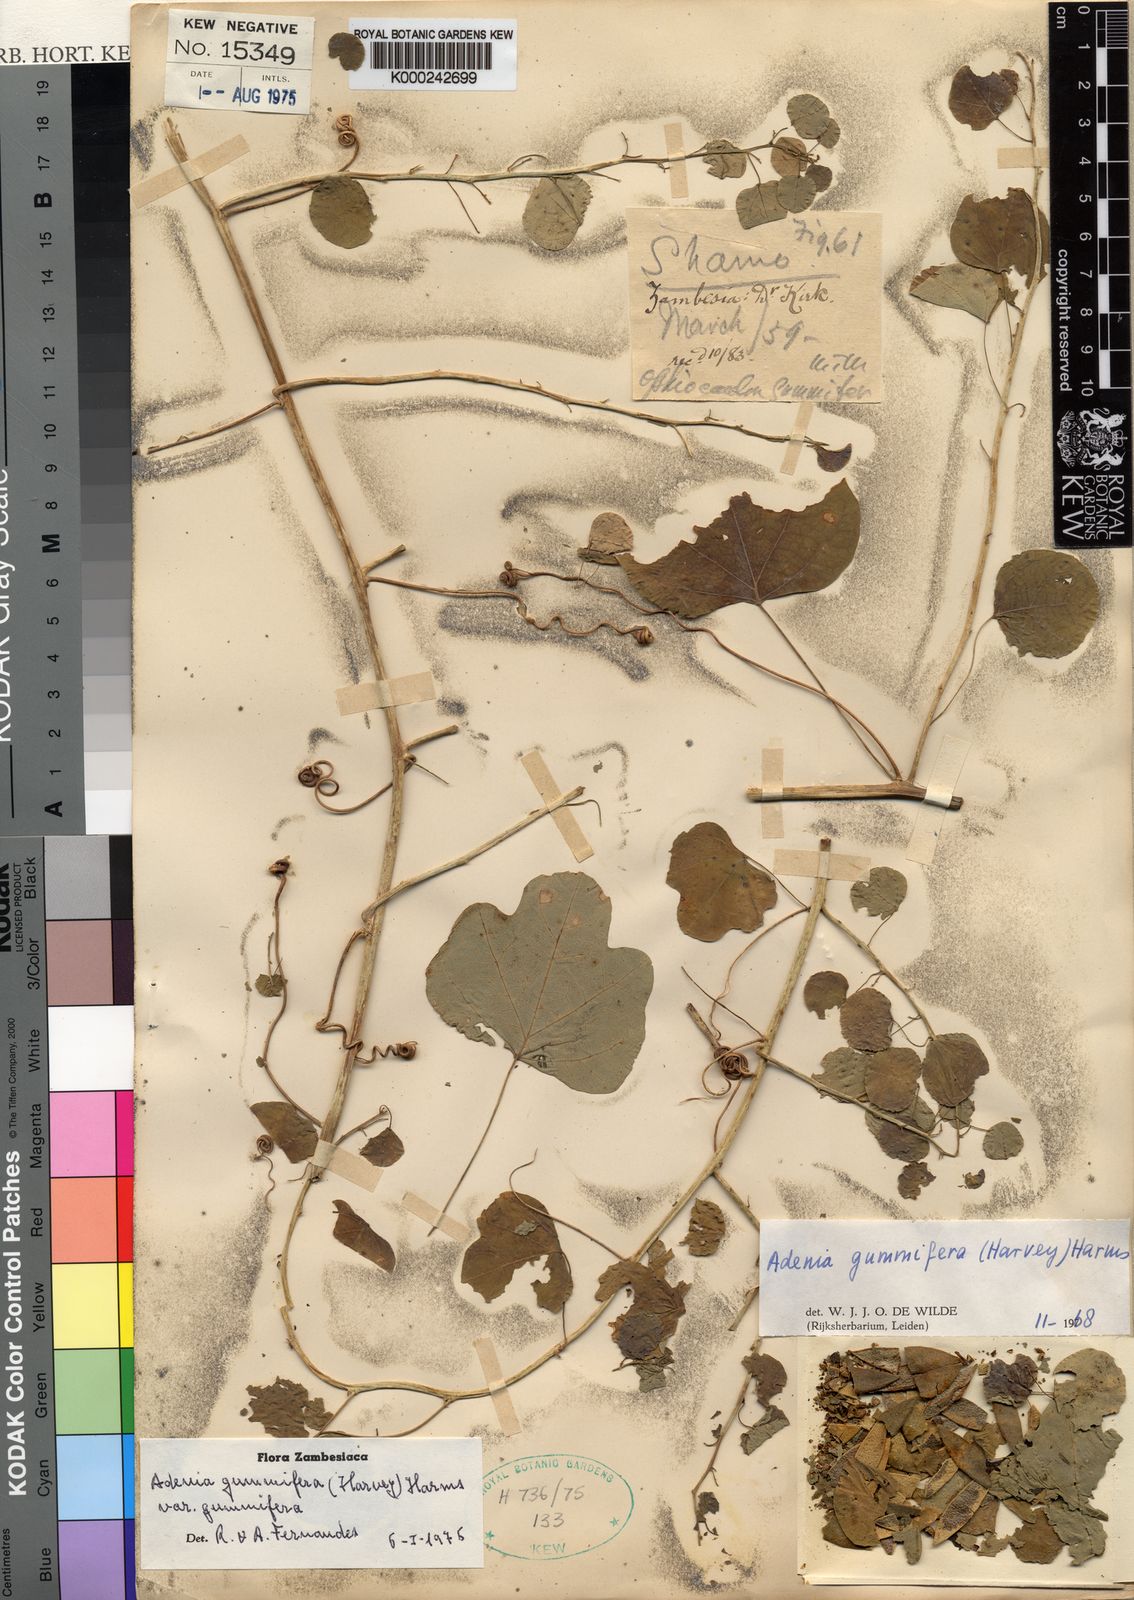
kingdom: Plantae
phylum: Tracheophyta
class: Magnoliopsida
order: Malpighiales
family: Passifloraceae
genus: Adenia
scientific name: Adenia cissampeloides
